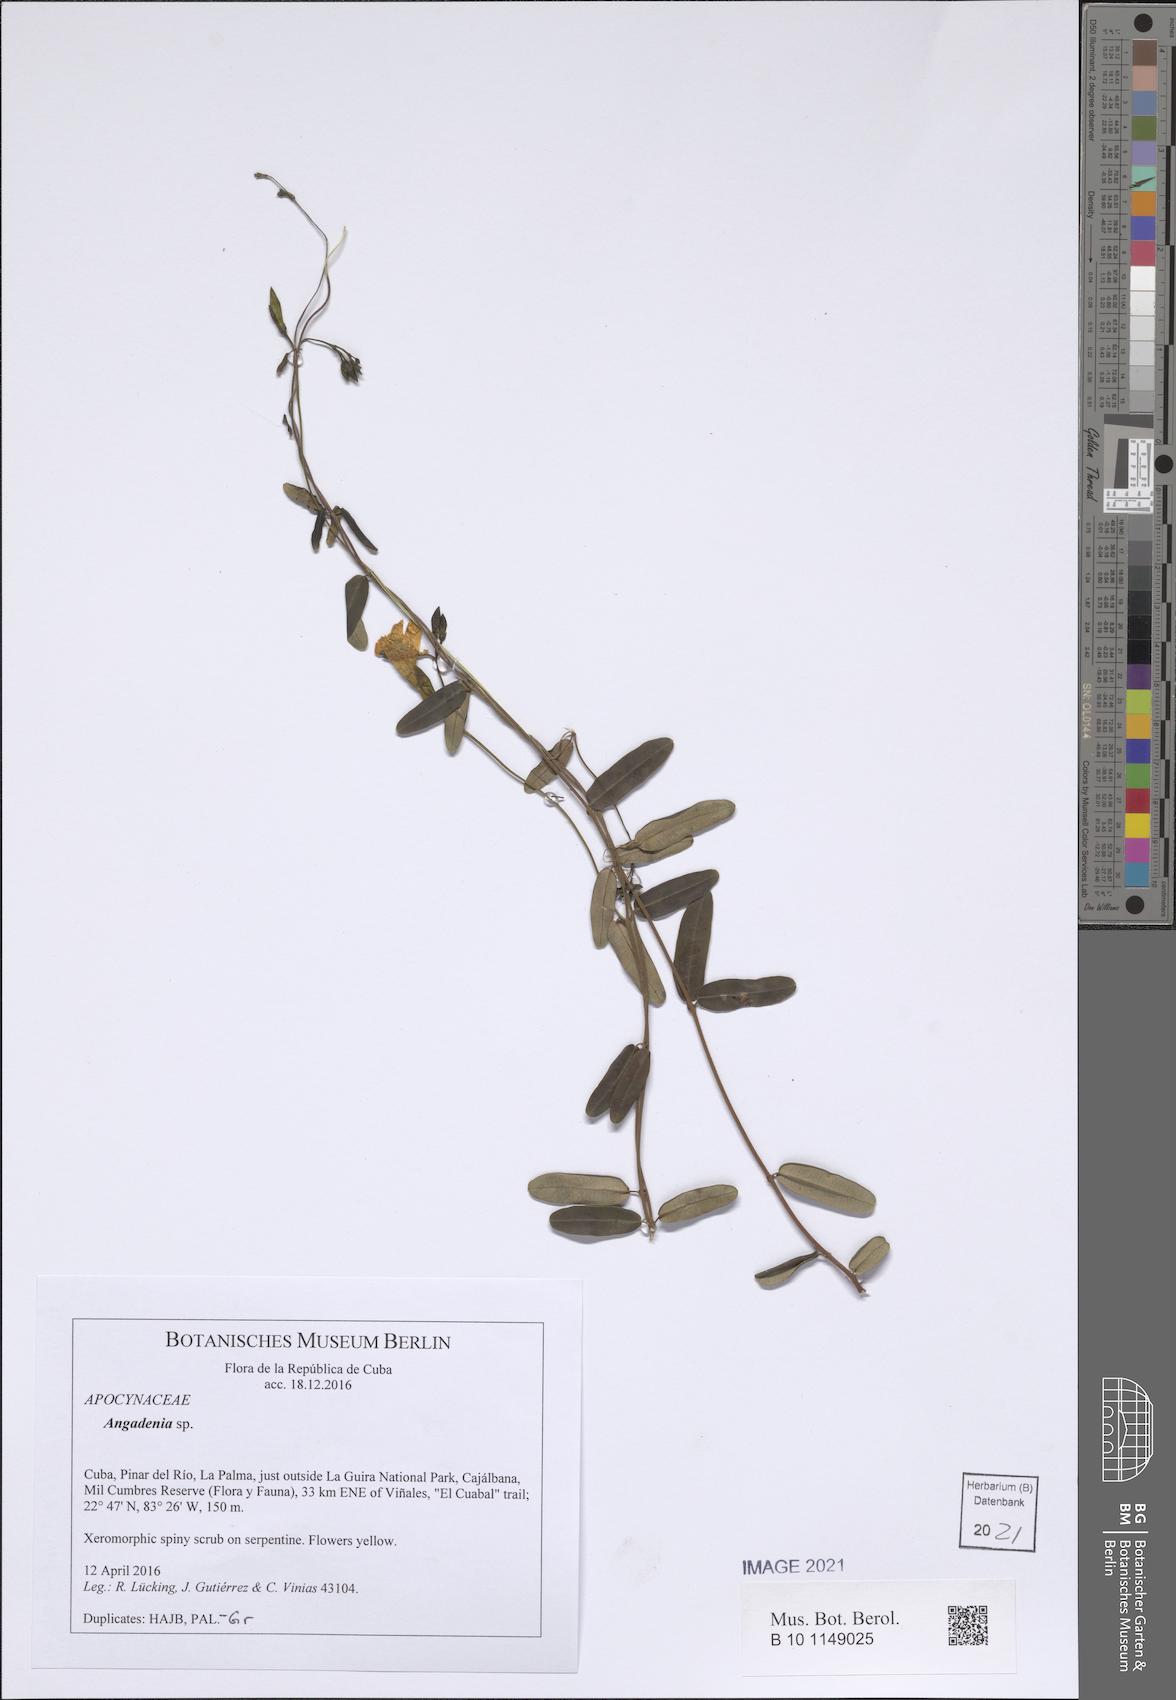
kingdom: Plantae
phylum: Tracheophyta
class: Magnoliopsida
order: Gentianales
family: Apocynaceae
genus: Angadenia
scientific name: Angadenia lindeniana
